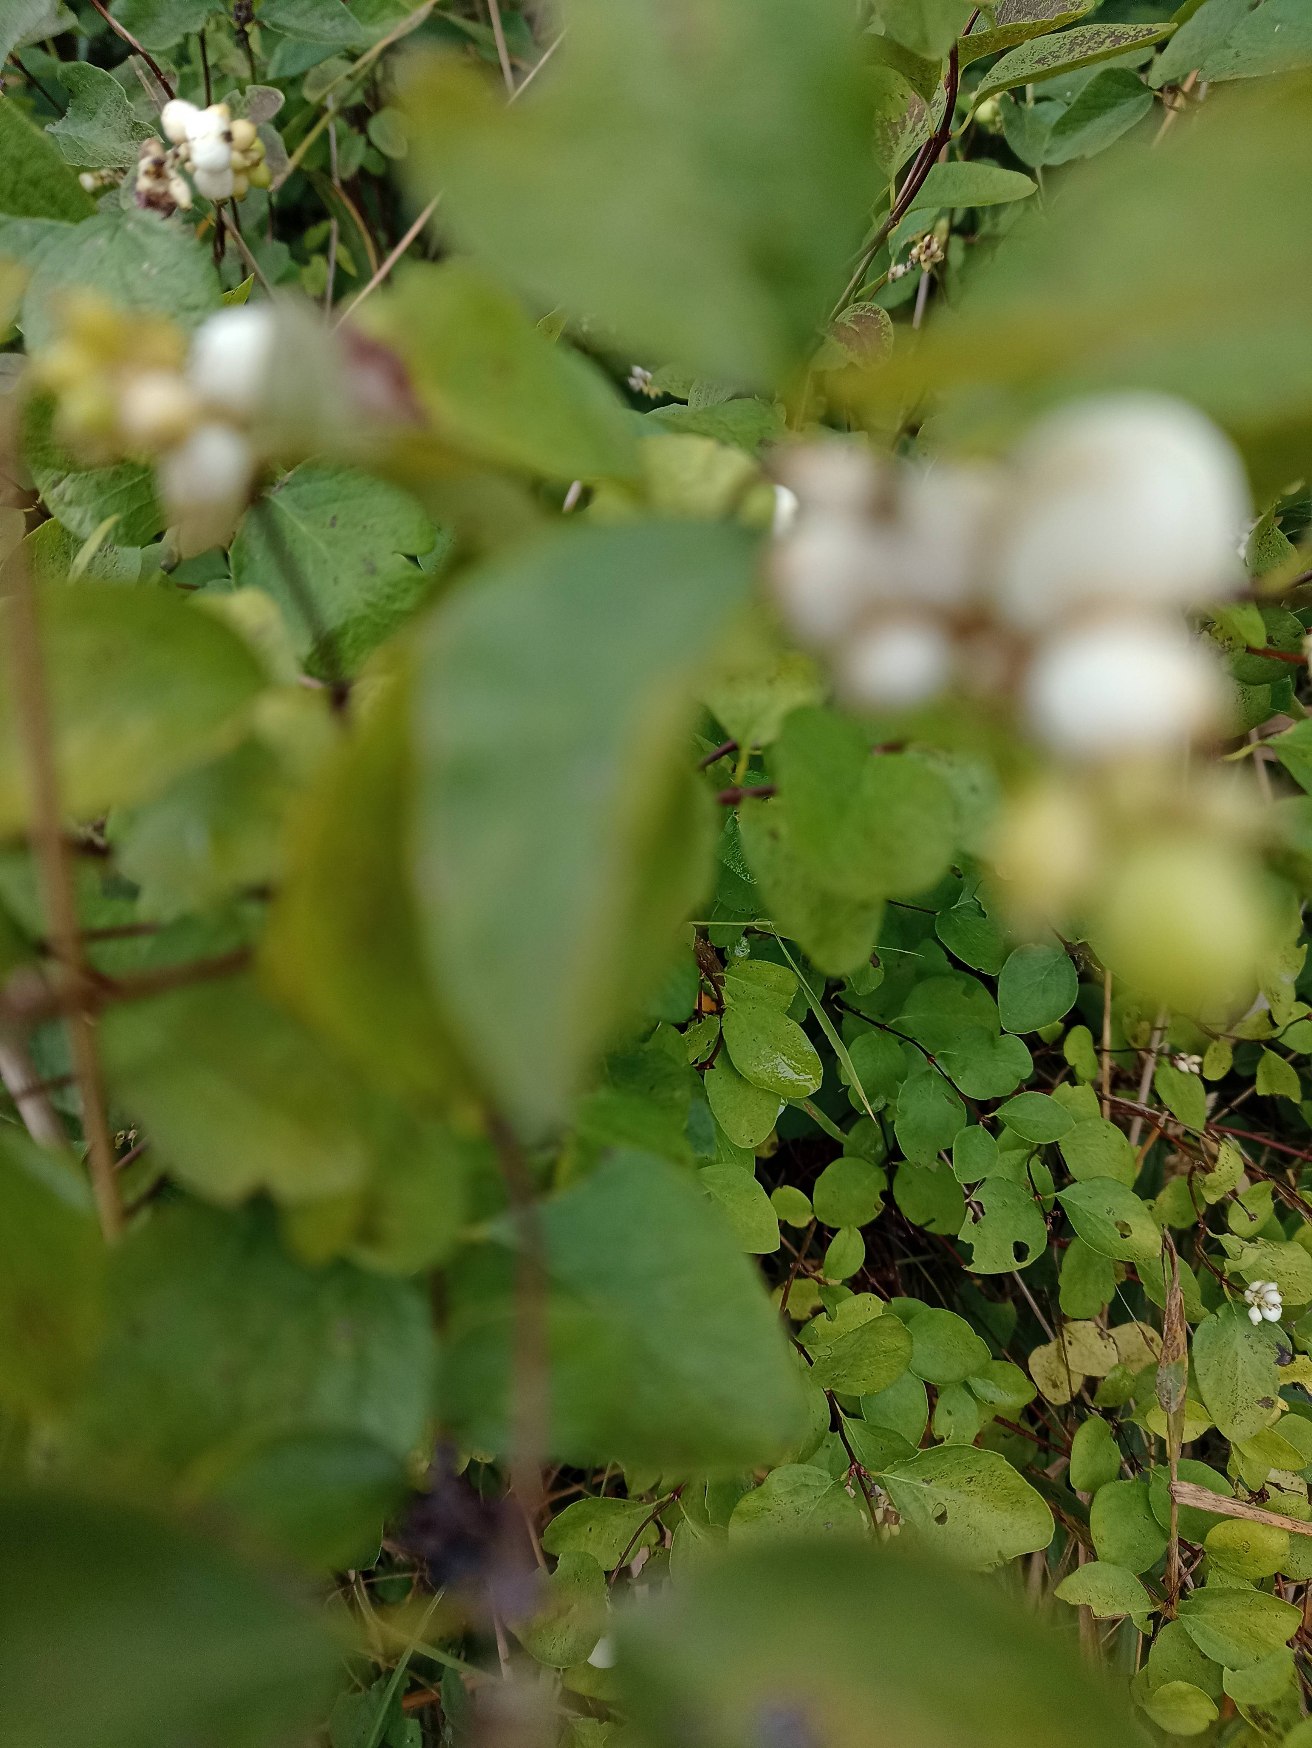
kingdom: Plantae
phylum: Tracheophyta
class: Magnoliopsida
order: Dipsacales
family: Caprifoliaceae
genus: Symphoricarpos
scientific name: Symphoricarpos albus
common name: Almindelig snebær
